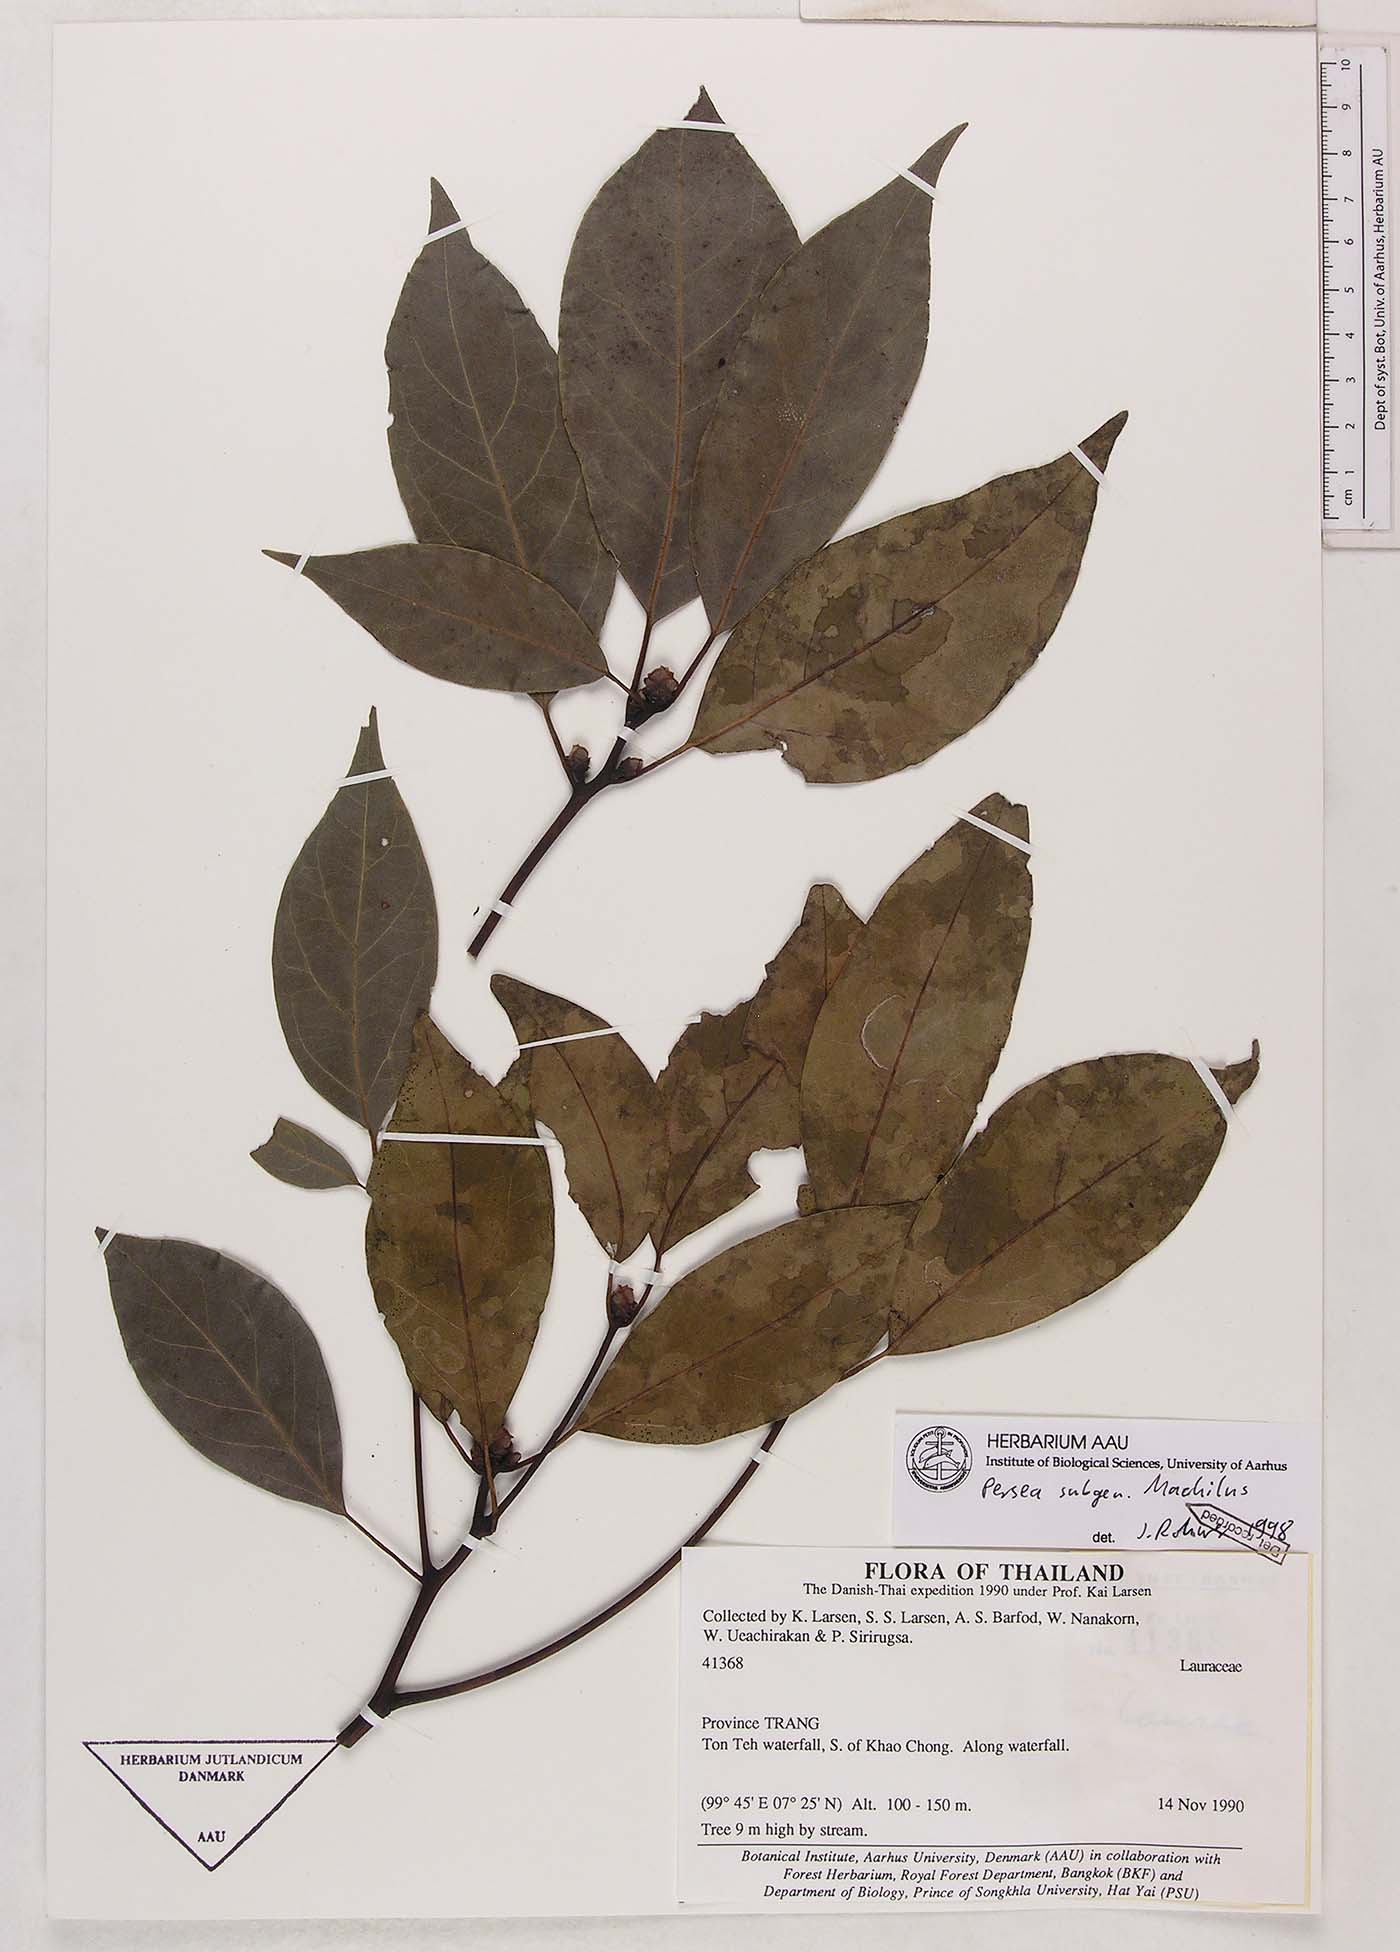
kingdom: Plantae
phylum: Tracheophyta
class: Magnoliopsida
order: Laurales
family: Lauraceae
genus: Persea
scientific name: Persea
